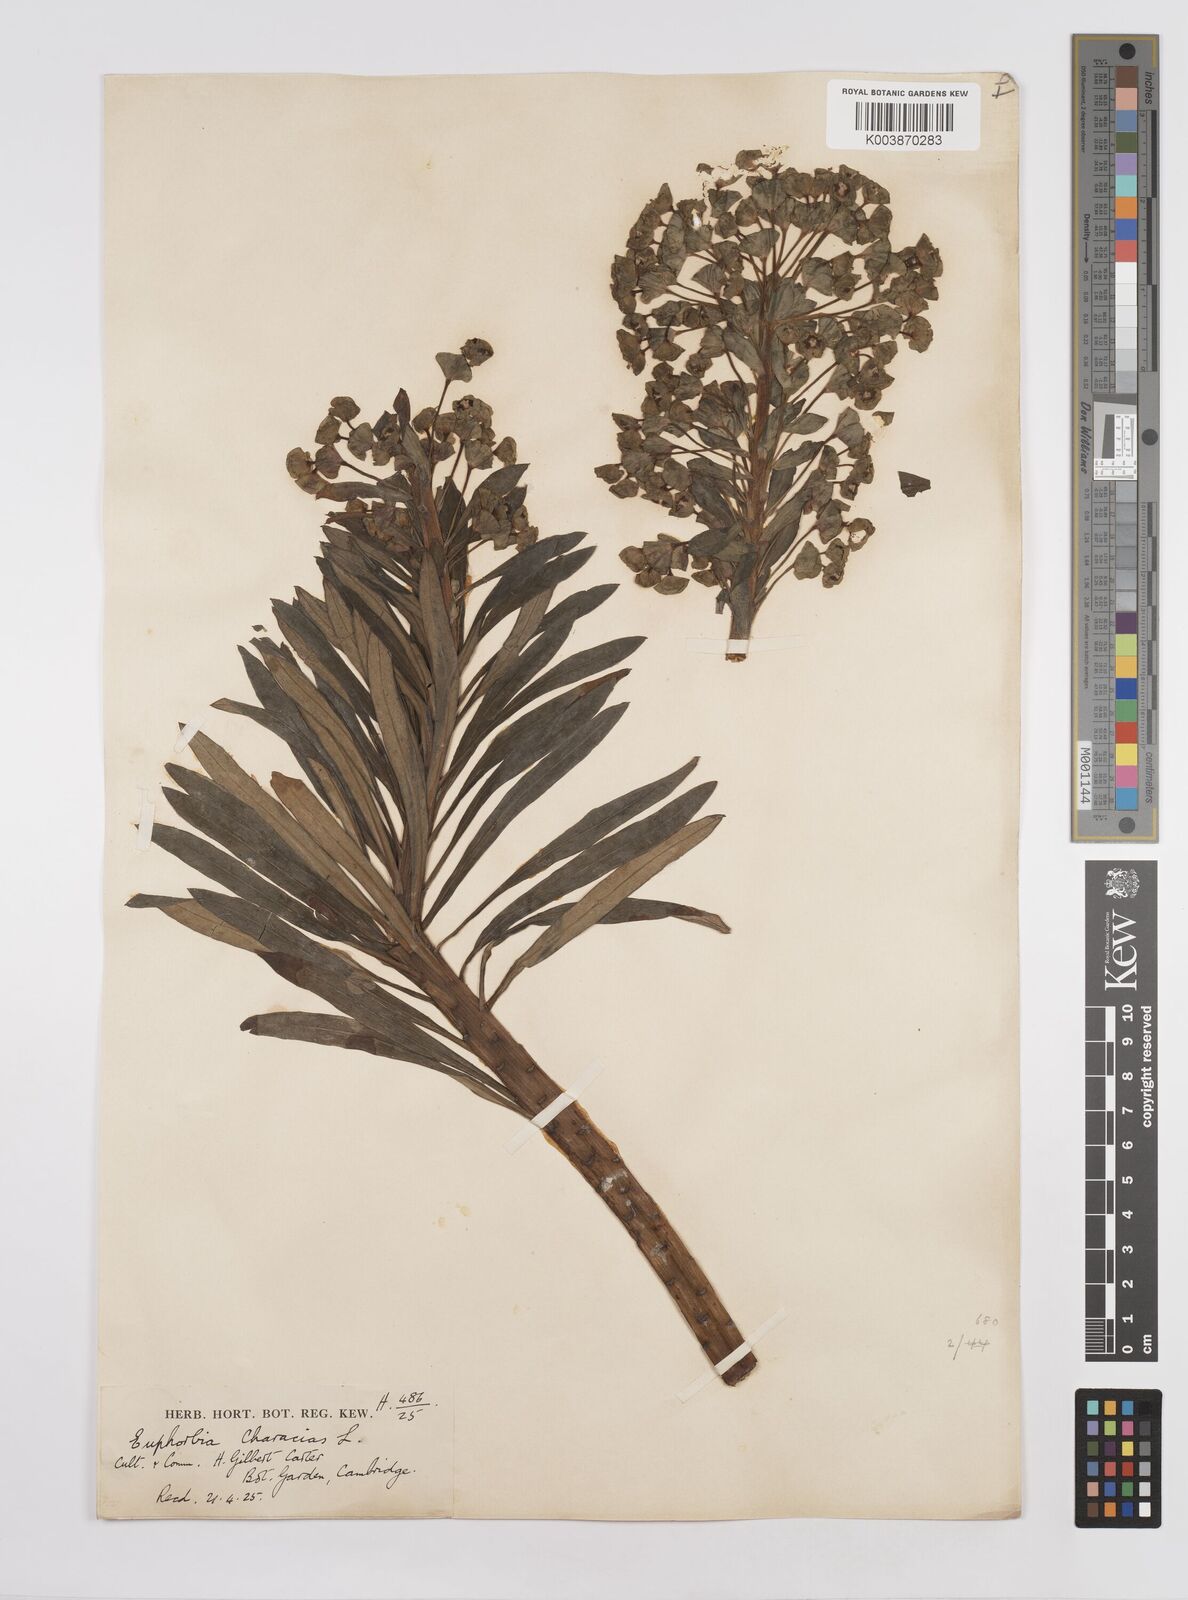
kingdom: Plantae
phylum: Tracheophyta
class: Magnoliopsida
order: Malpighiales
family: Euphorbiaceae
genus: Euphorbia
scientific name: Euphorbia characias
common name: Mediterranean spurge
